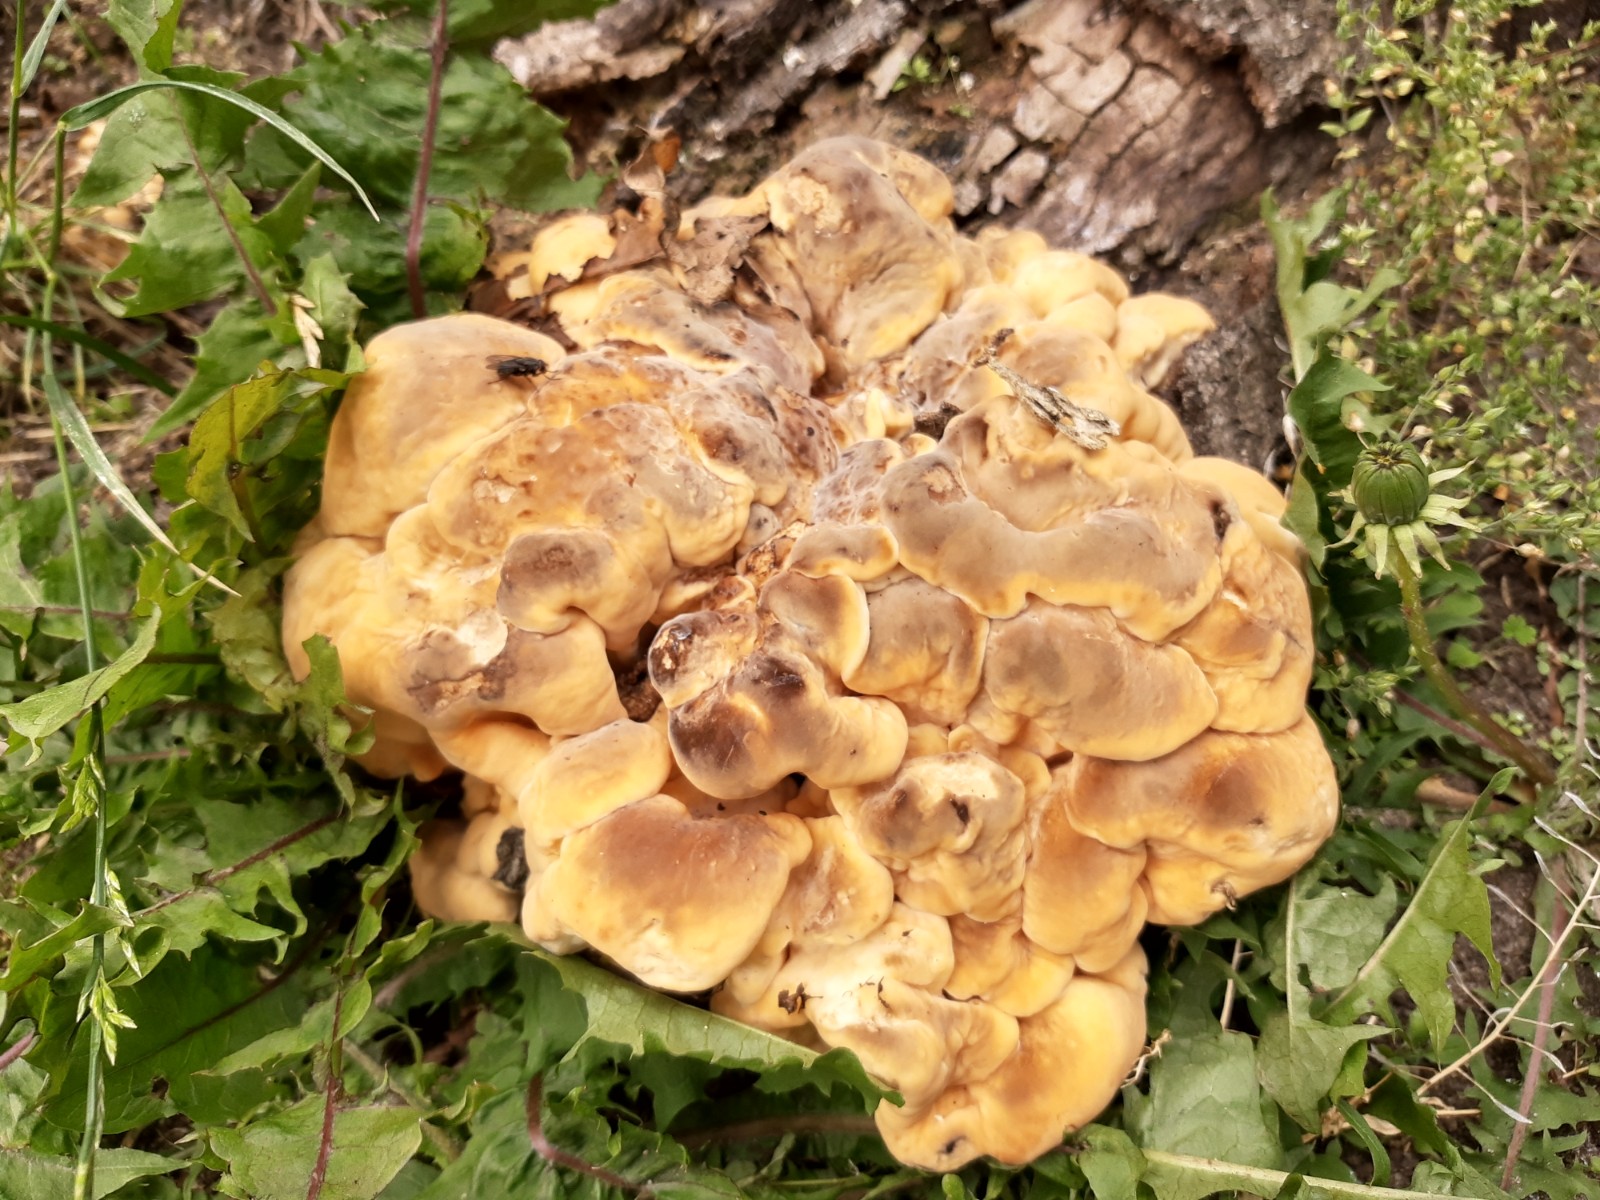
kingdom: Fungi
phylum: Basidiomycota
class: Agaricomycetes
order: Polyporales
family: Meripilaceae
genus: Meripilus
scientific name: Meripilus giganteus
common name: kæmpeporesvamp
